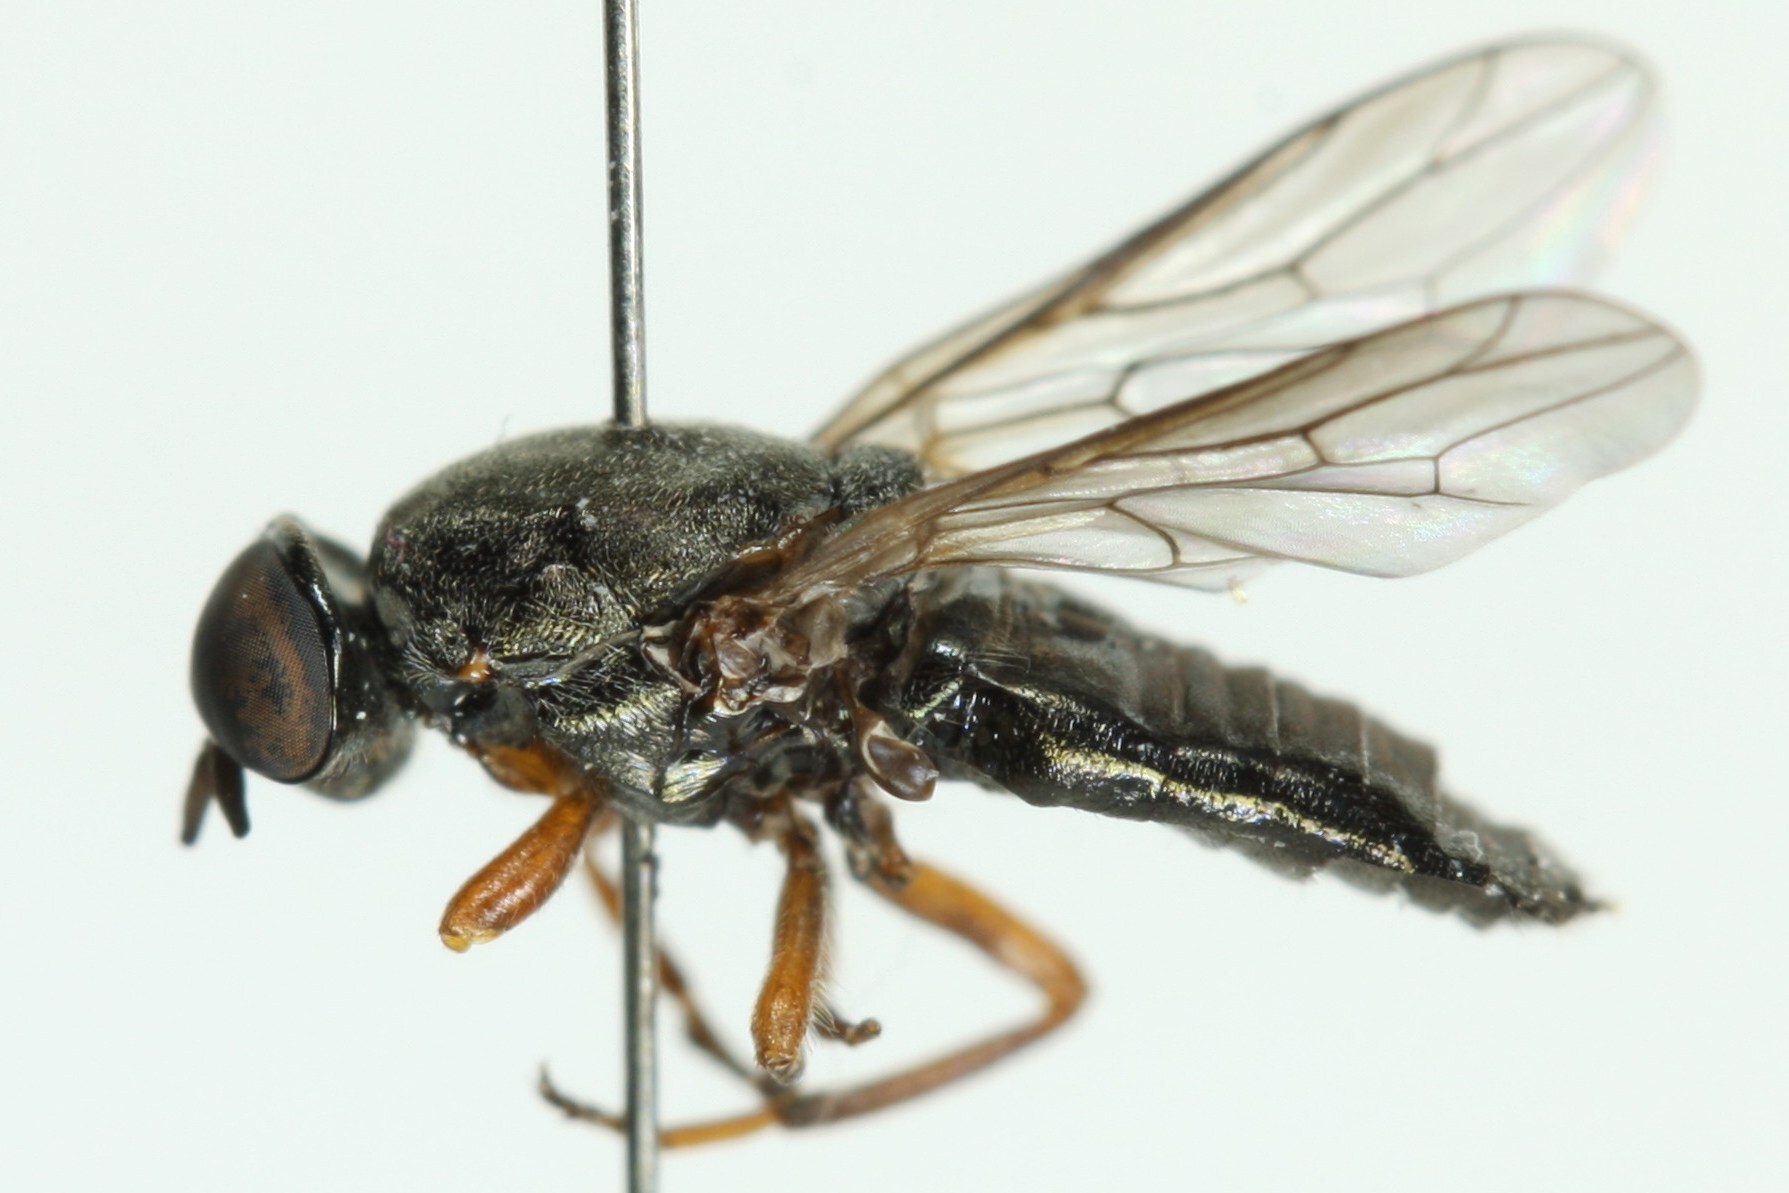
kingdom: Animalia
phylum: Arthropoda
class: Insecta
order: Diptera
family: Scenopinidae
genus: Scenopinus
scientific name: Scenopinus fenestralis
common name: House windowfly
